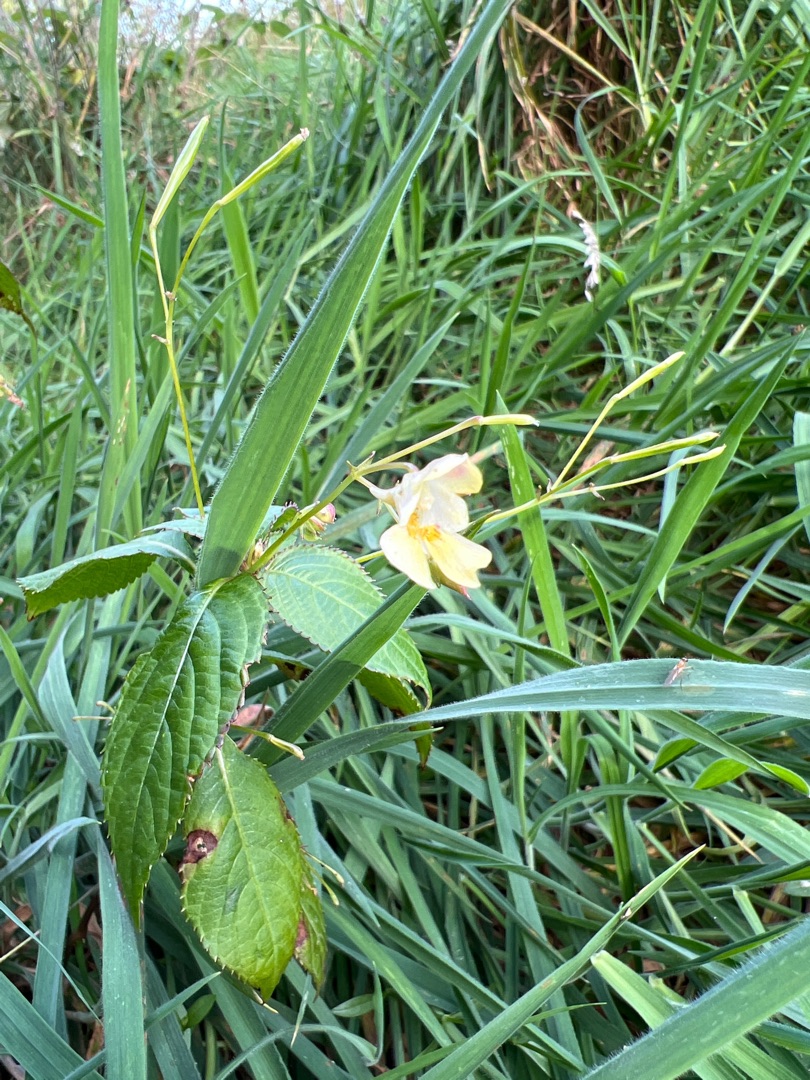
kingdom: Plantae
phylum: Tracheophyta
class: Magnoliopsida
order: Ericales
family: Balsaminaceae
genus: Impatiens
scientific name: Impatiens parviflora
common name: Småblomstret balsamin
